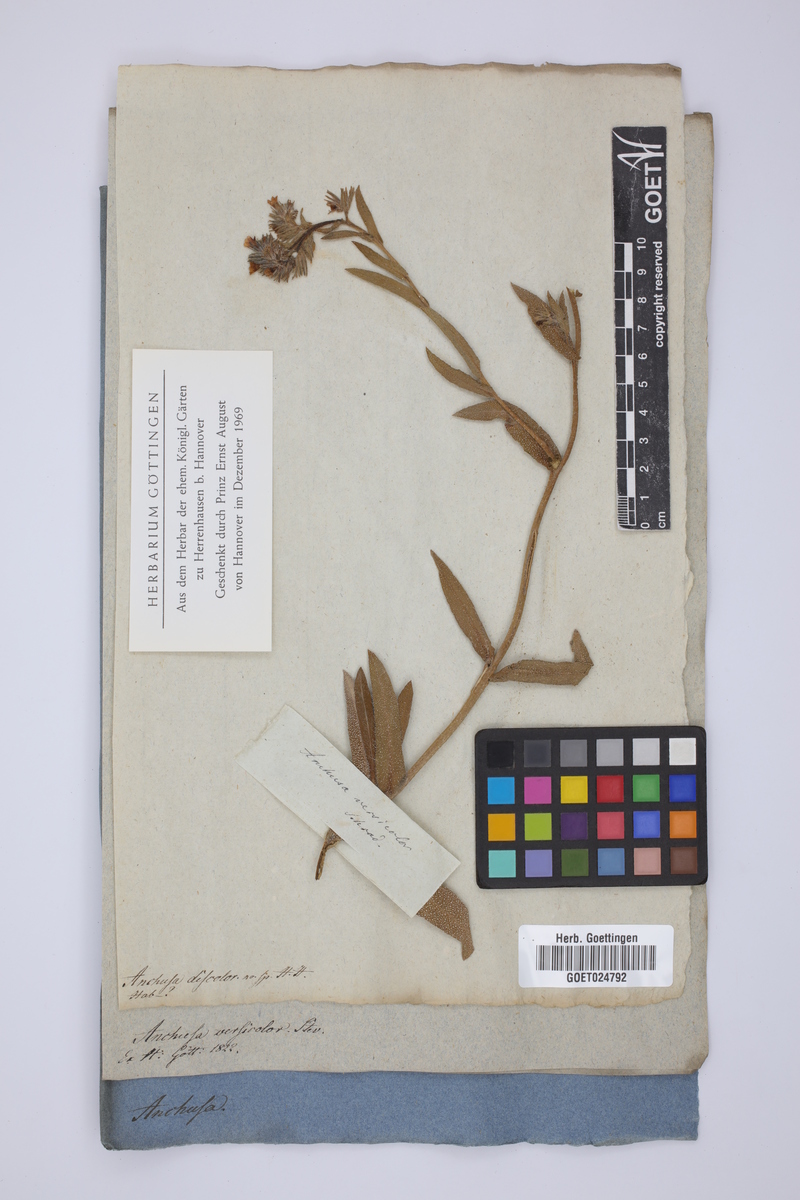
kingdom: Plantae
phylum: Tracheophyta
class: Magnoliopsida
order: Boraginales
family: Boraginaceae
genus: Nonea
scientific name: Nonea versicolor
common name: Varied monkswort
